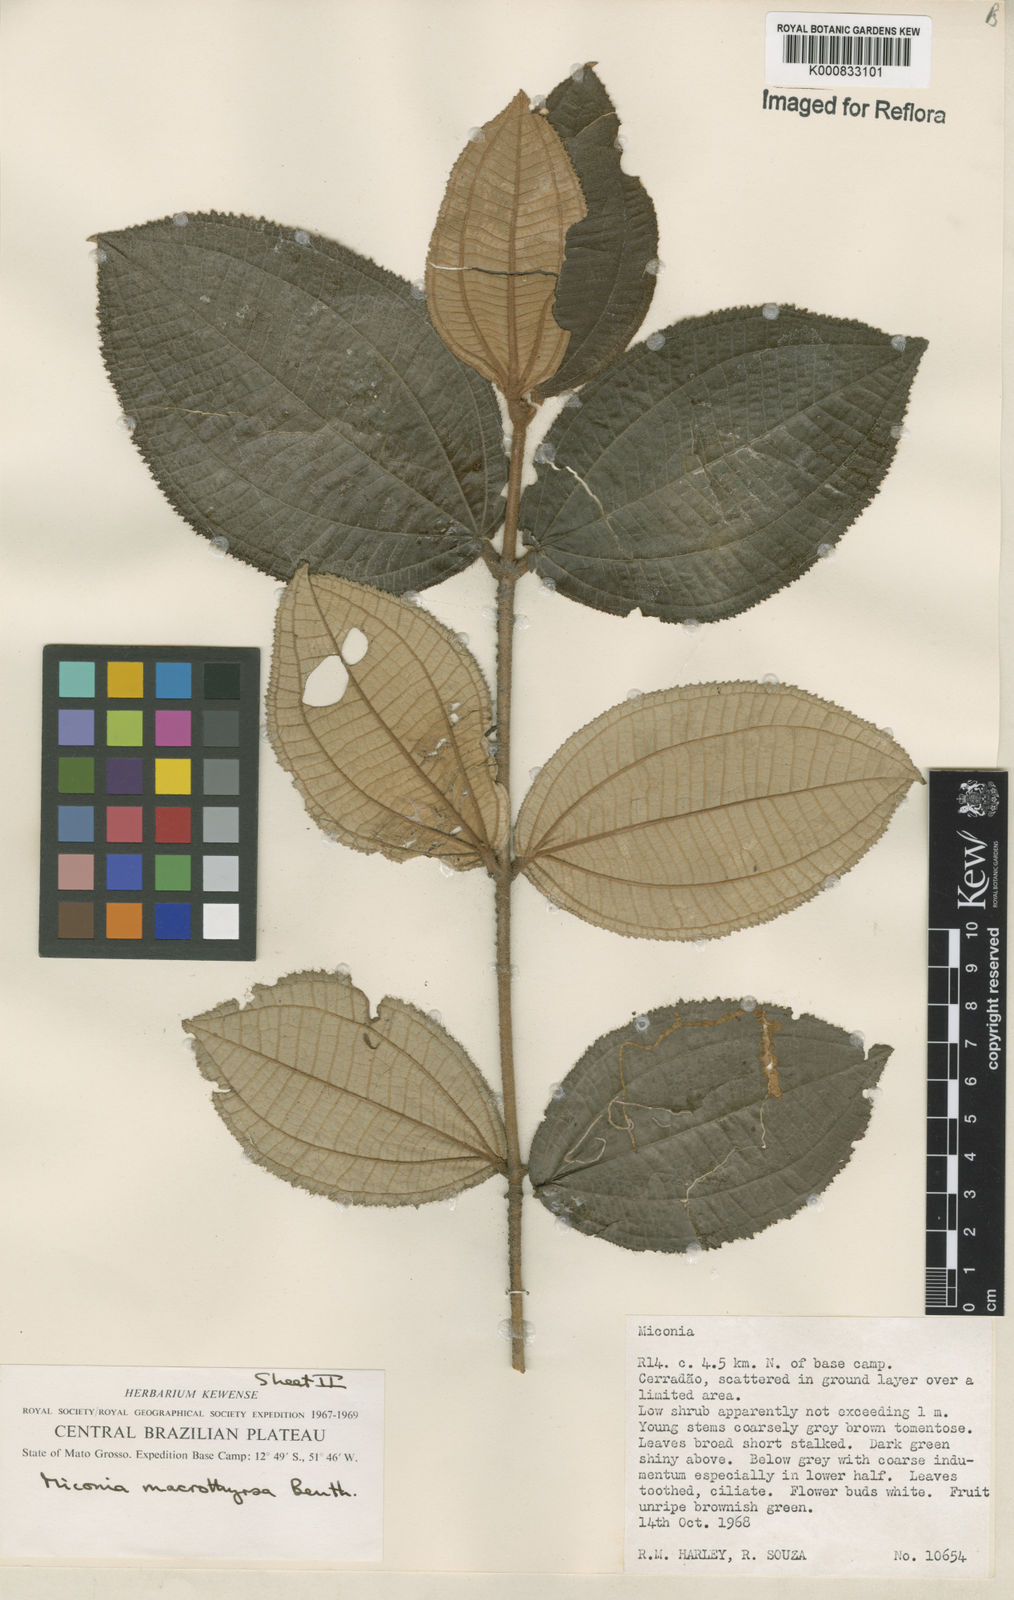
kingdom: Plantae
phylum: Tracheophyta
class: Magnoliopsida
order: Myrtales
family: Melastomataceae
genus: Miconia
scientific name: Miconia macrothyrsa
